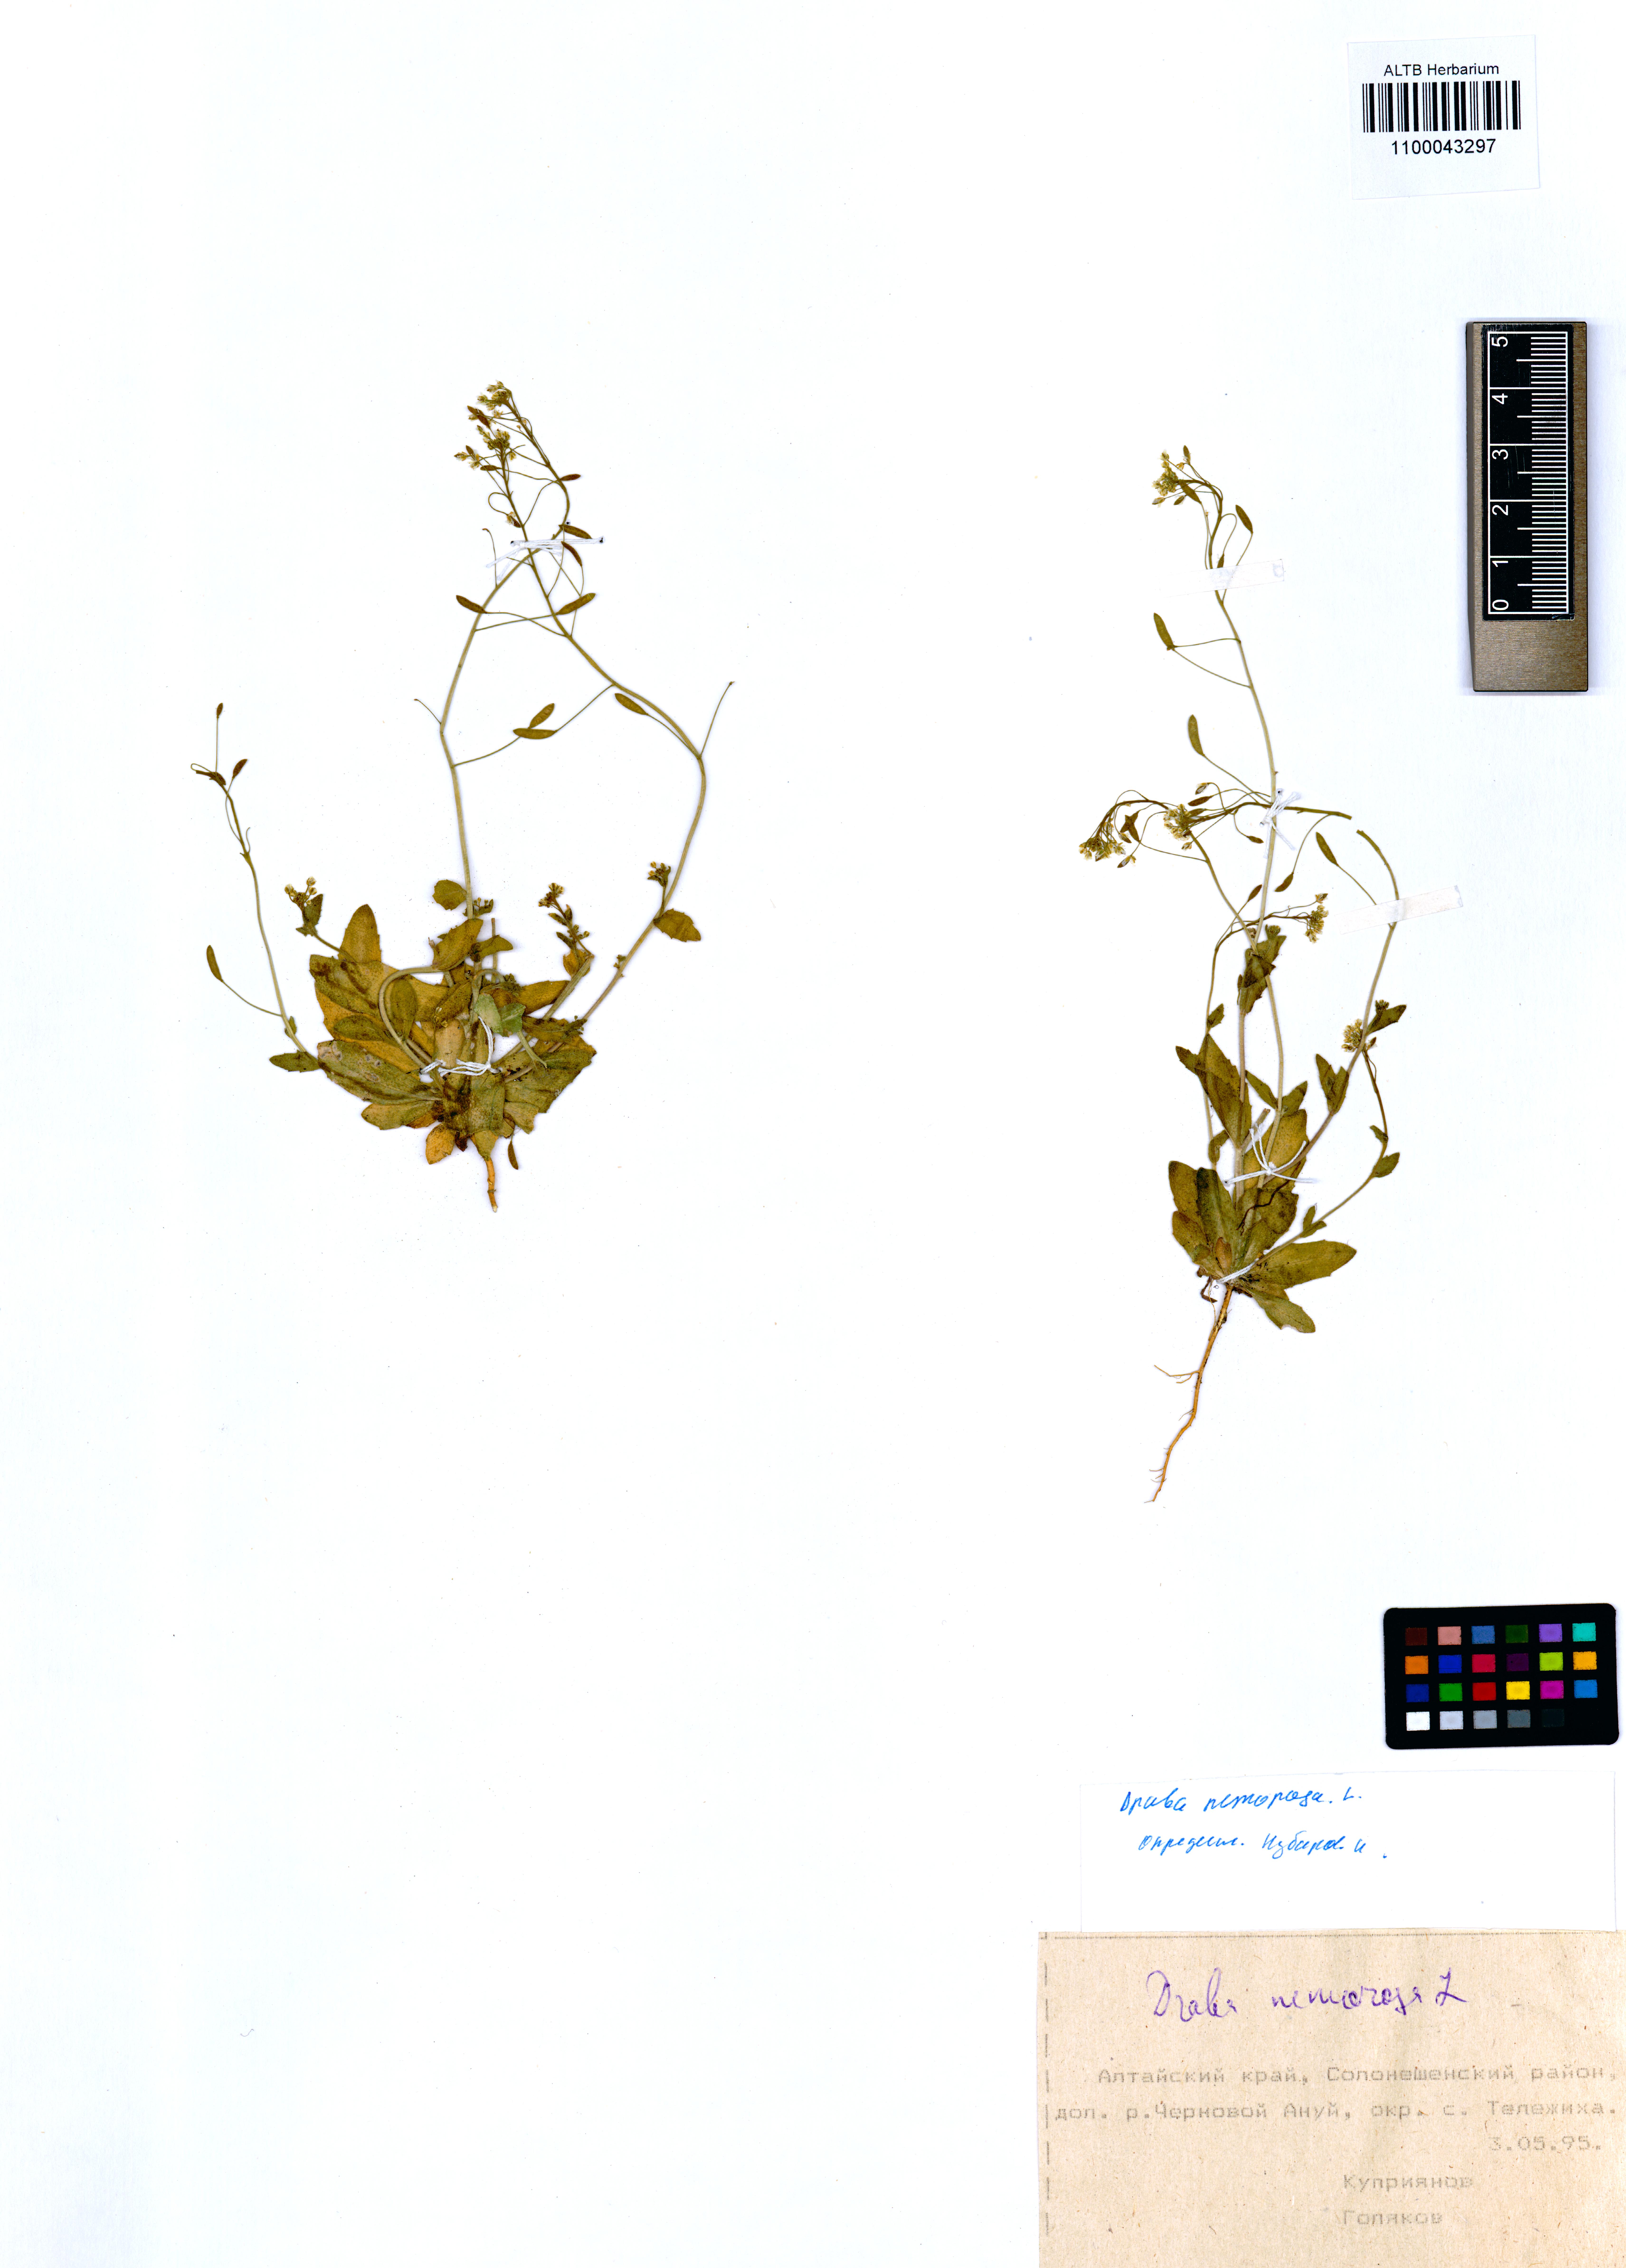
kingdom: Plantae
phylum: Tracheophyta
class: Magnoliopsida
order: Brassicales
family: Brassicaceae
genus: Draba
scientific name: Draba nemorosa
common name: Wood whitlow-grass
